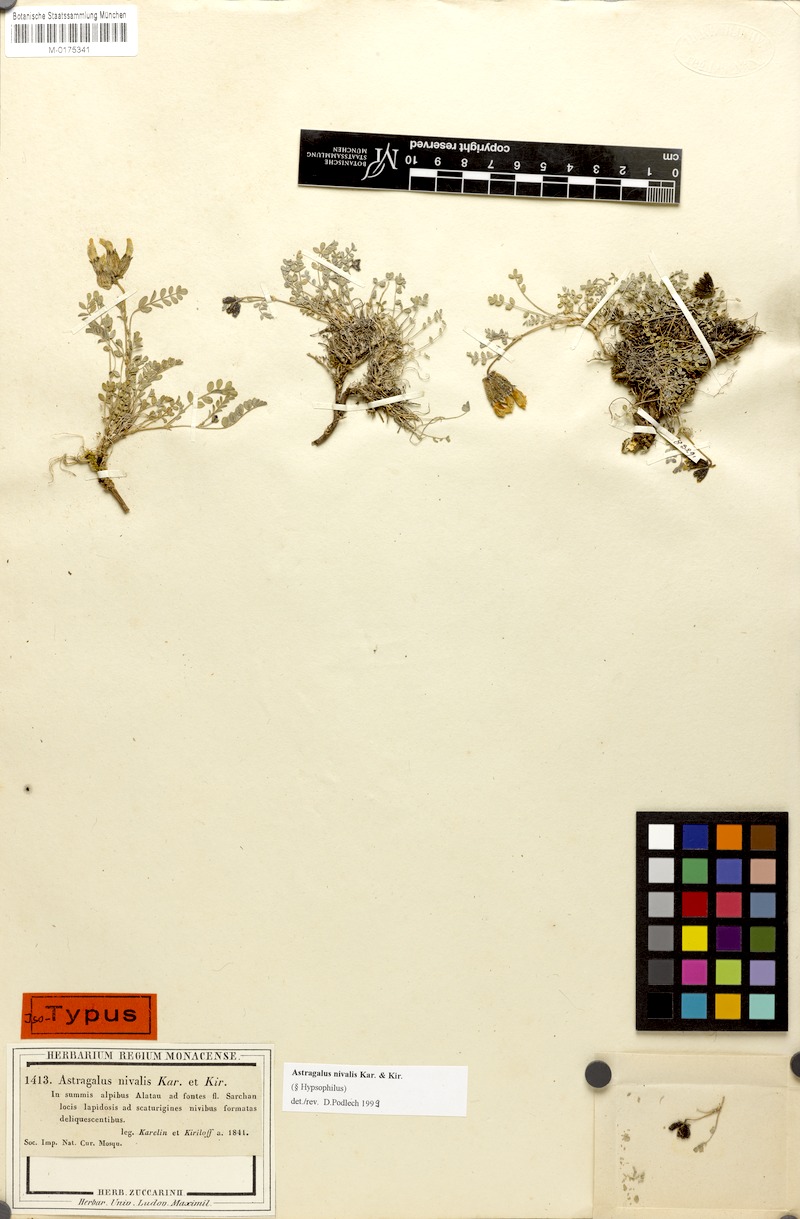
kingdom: Plantae
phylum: Tracheophyta
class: Magnoliopsida
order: Fabales
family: Fabaceae
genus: Astragalus
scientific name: Astragalus nivalis
